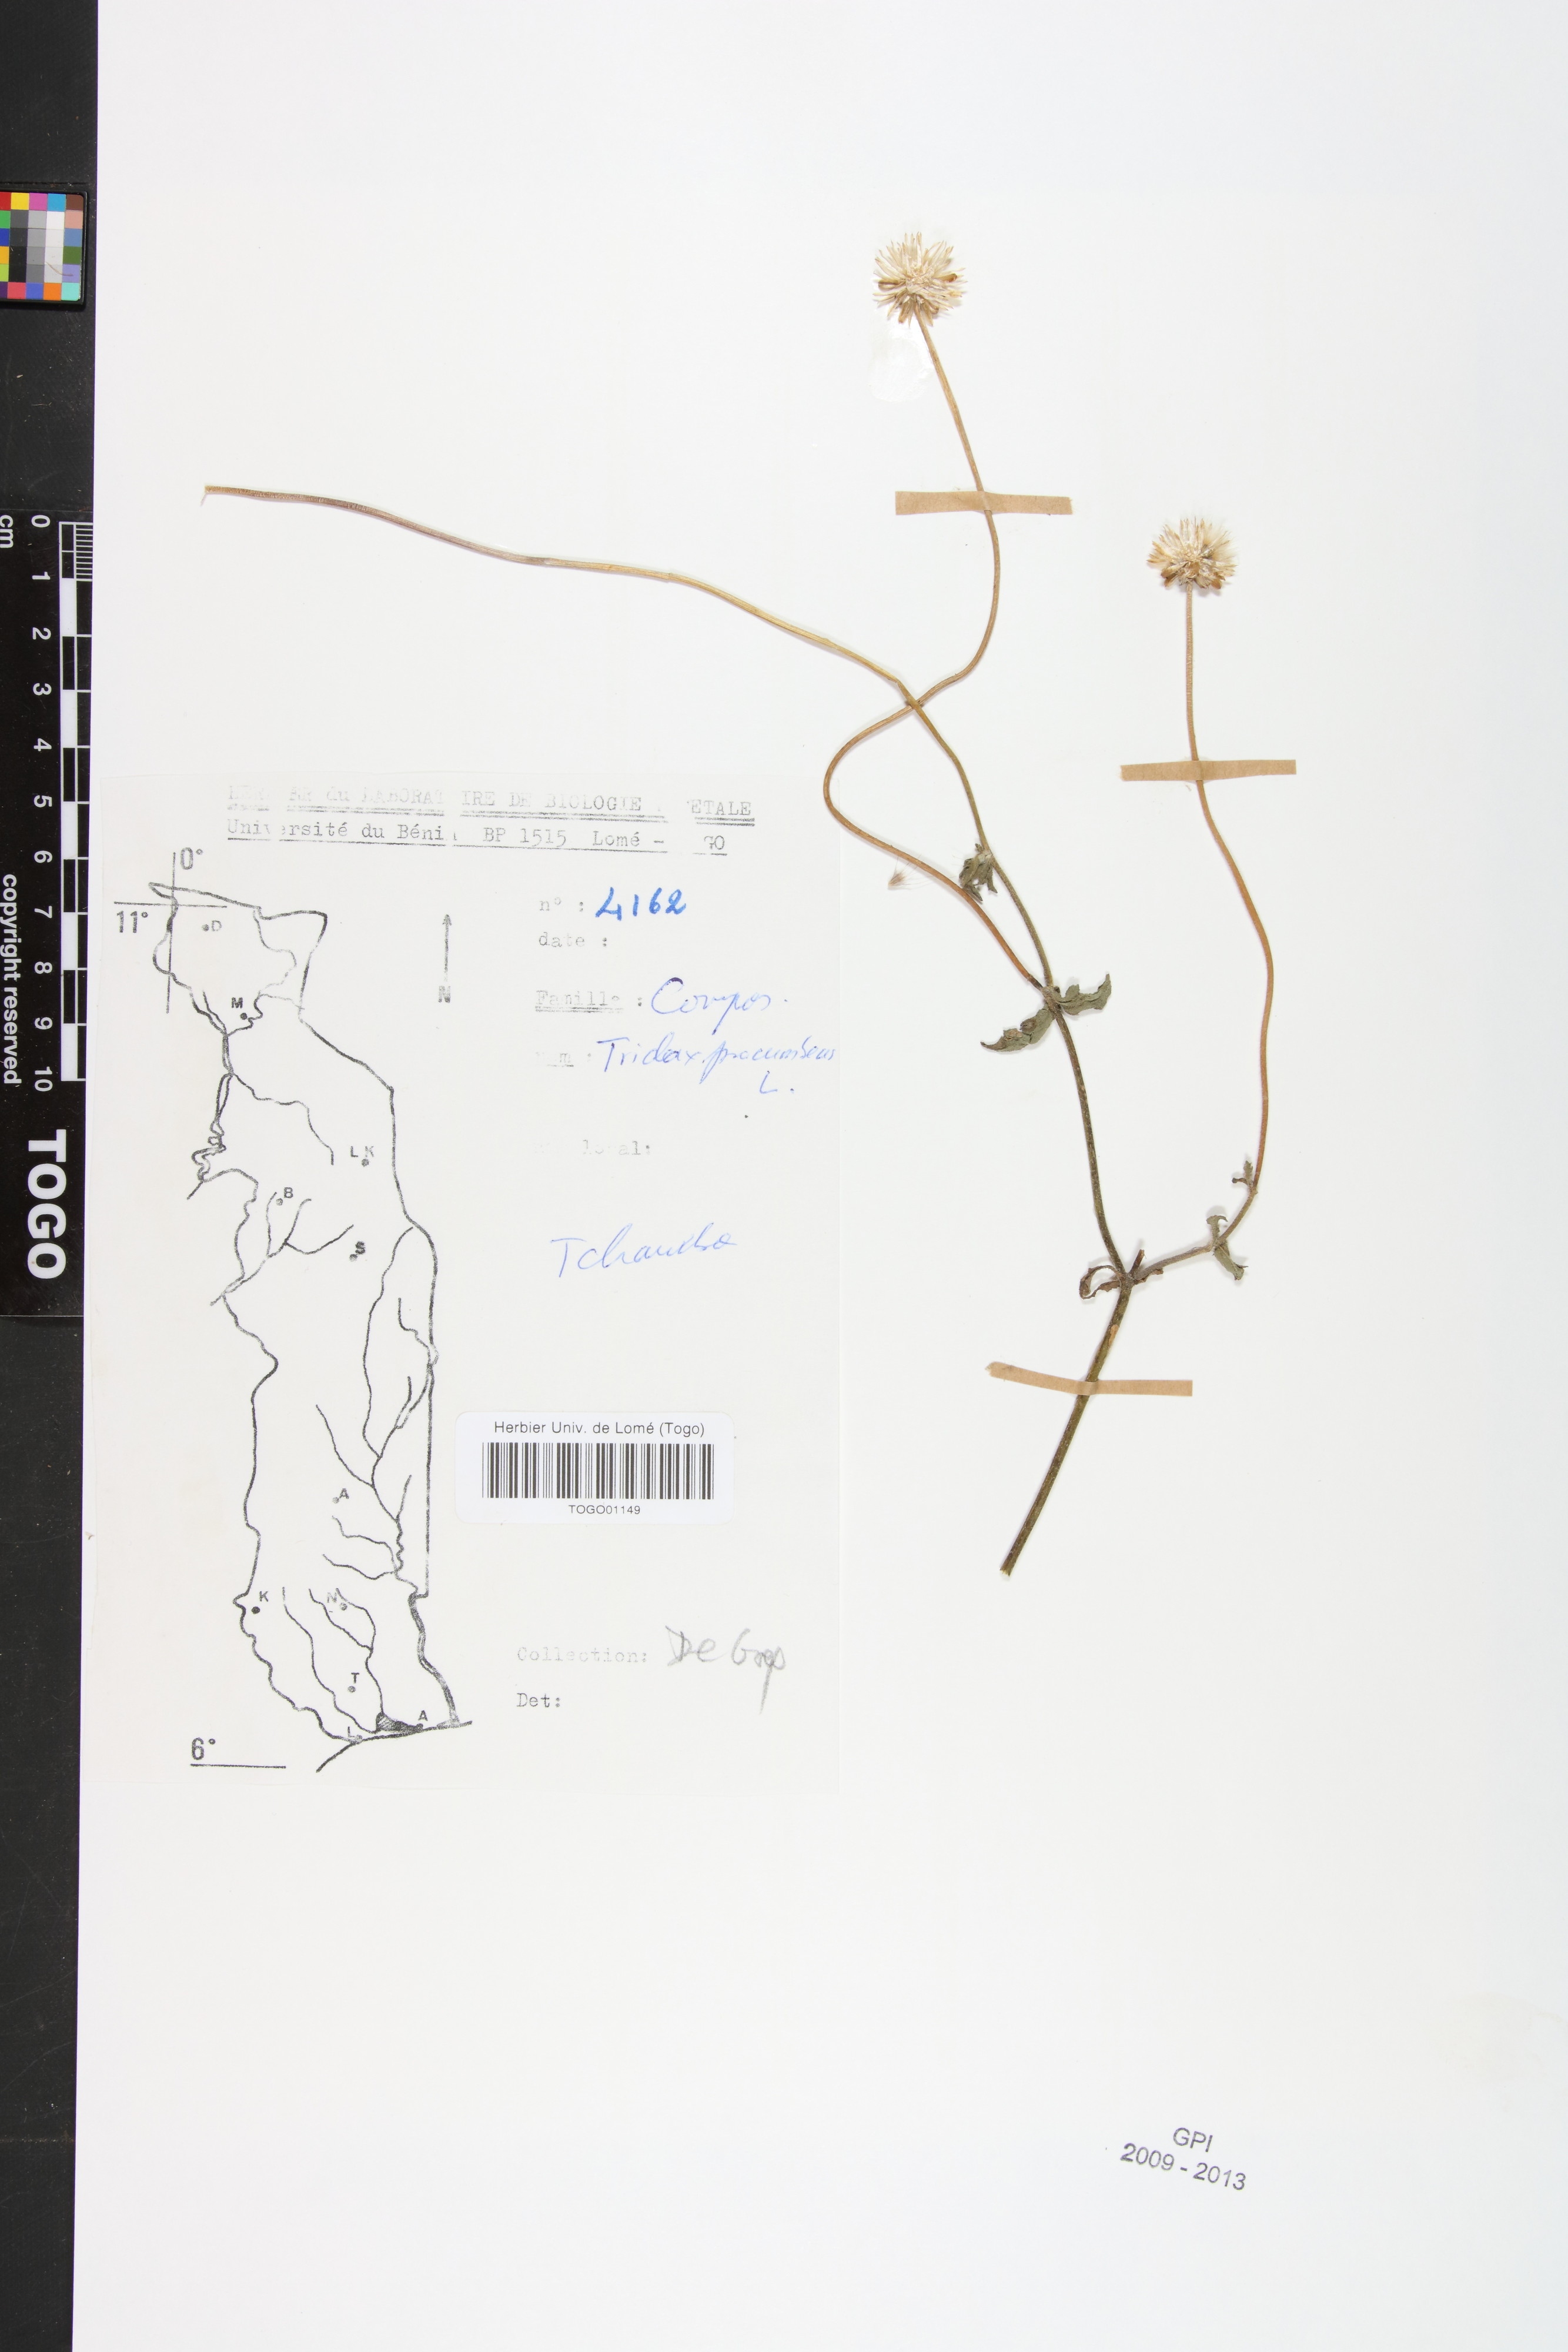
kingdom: Plantae
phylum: Tracheophyta
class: Magnoliopsida
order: Asterales
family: Asteraceae
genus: Tridax
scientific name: Tridax procumbens
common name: Coatbuttons
